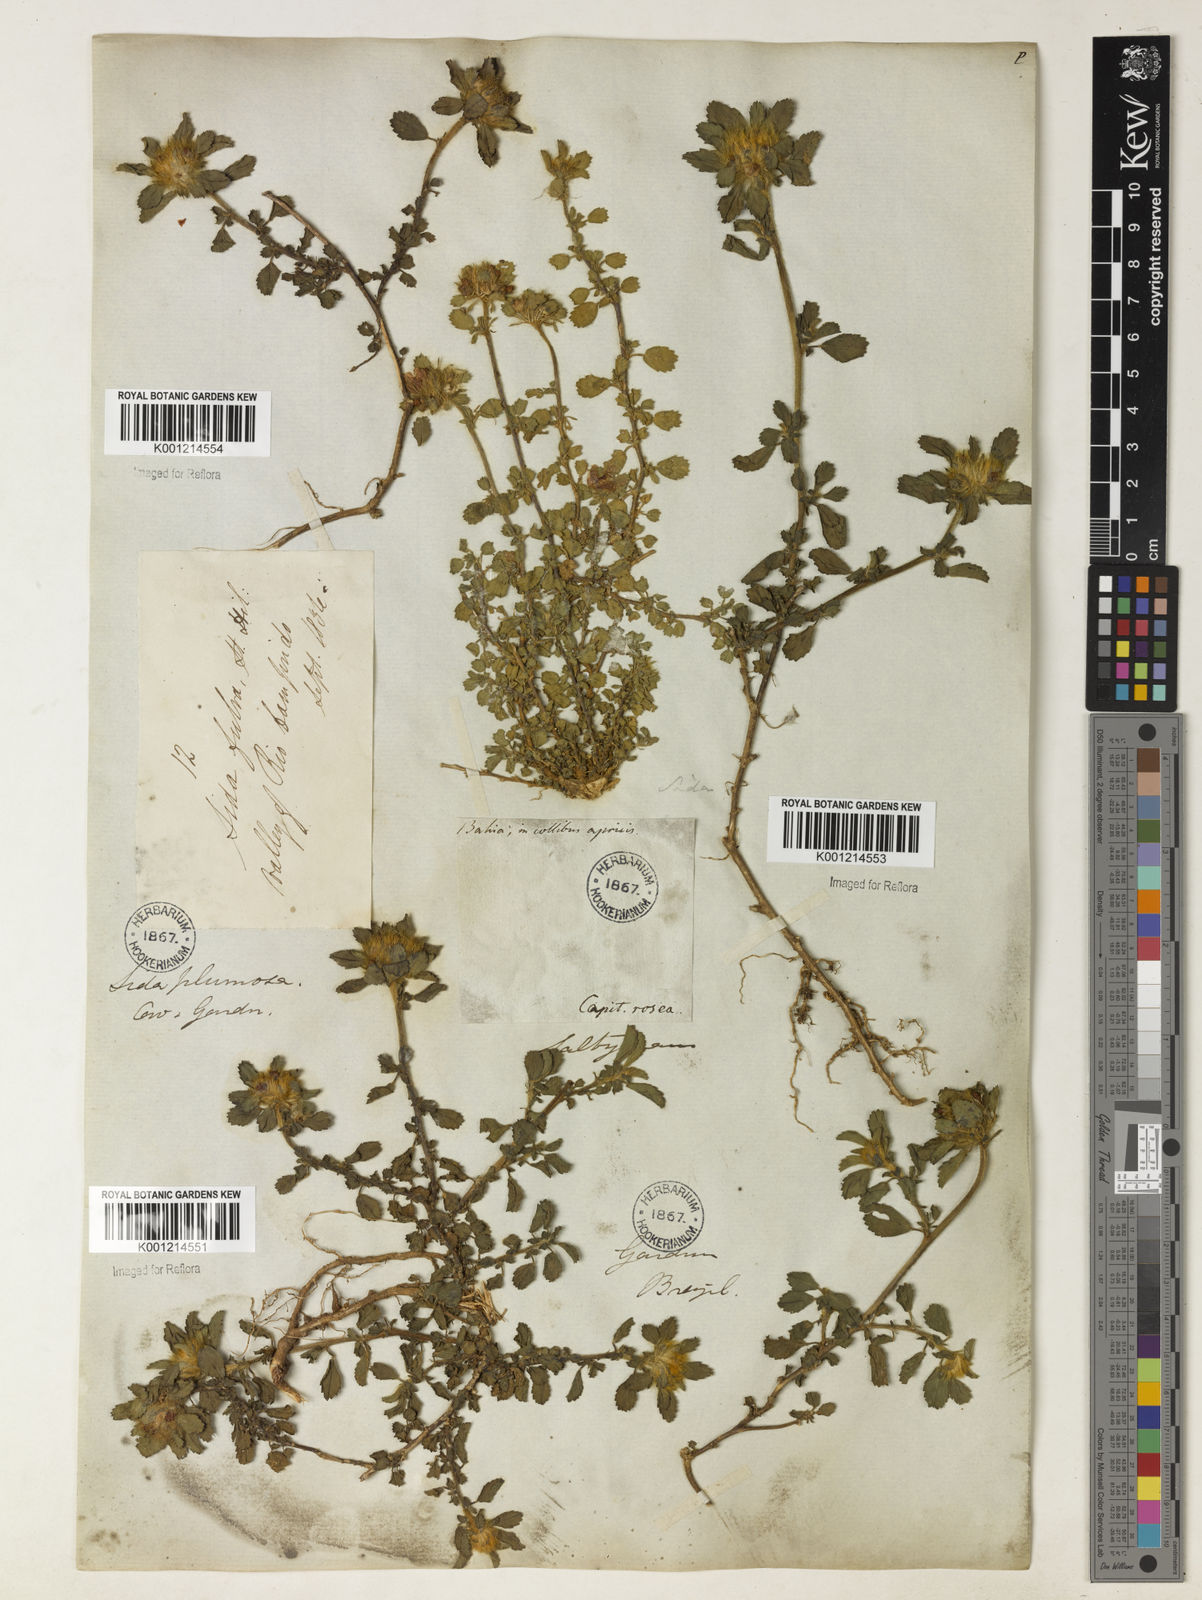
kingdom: Plantae
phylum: Tracheophyta
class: Magnoliopsida
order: Malvales
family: Malvaceae
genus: Sida
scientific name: Sida ciliaris
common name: Bracted fanpetals
